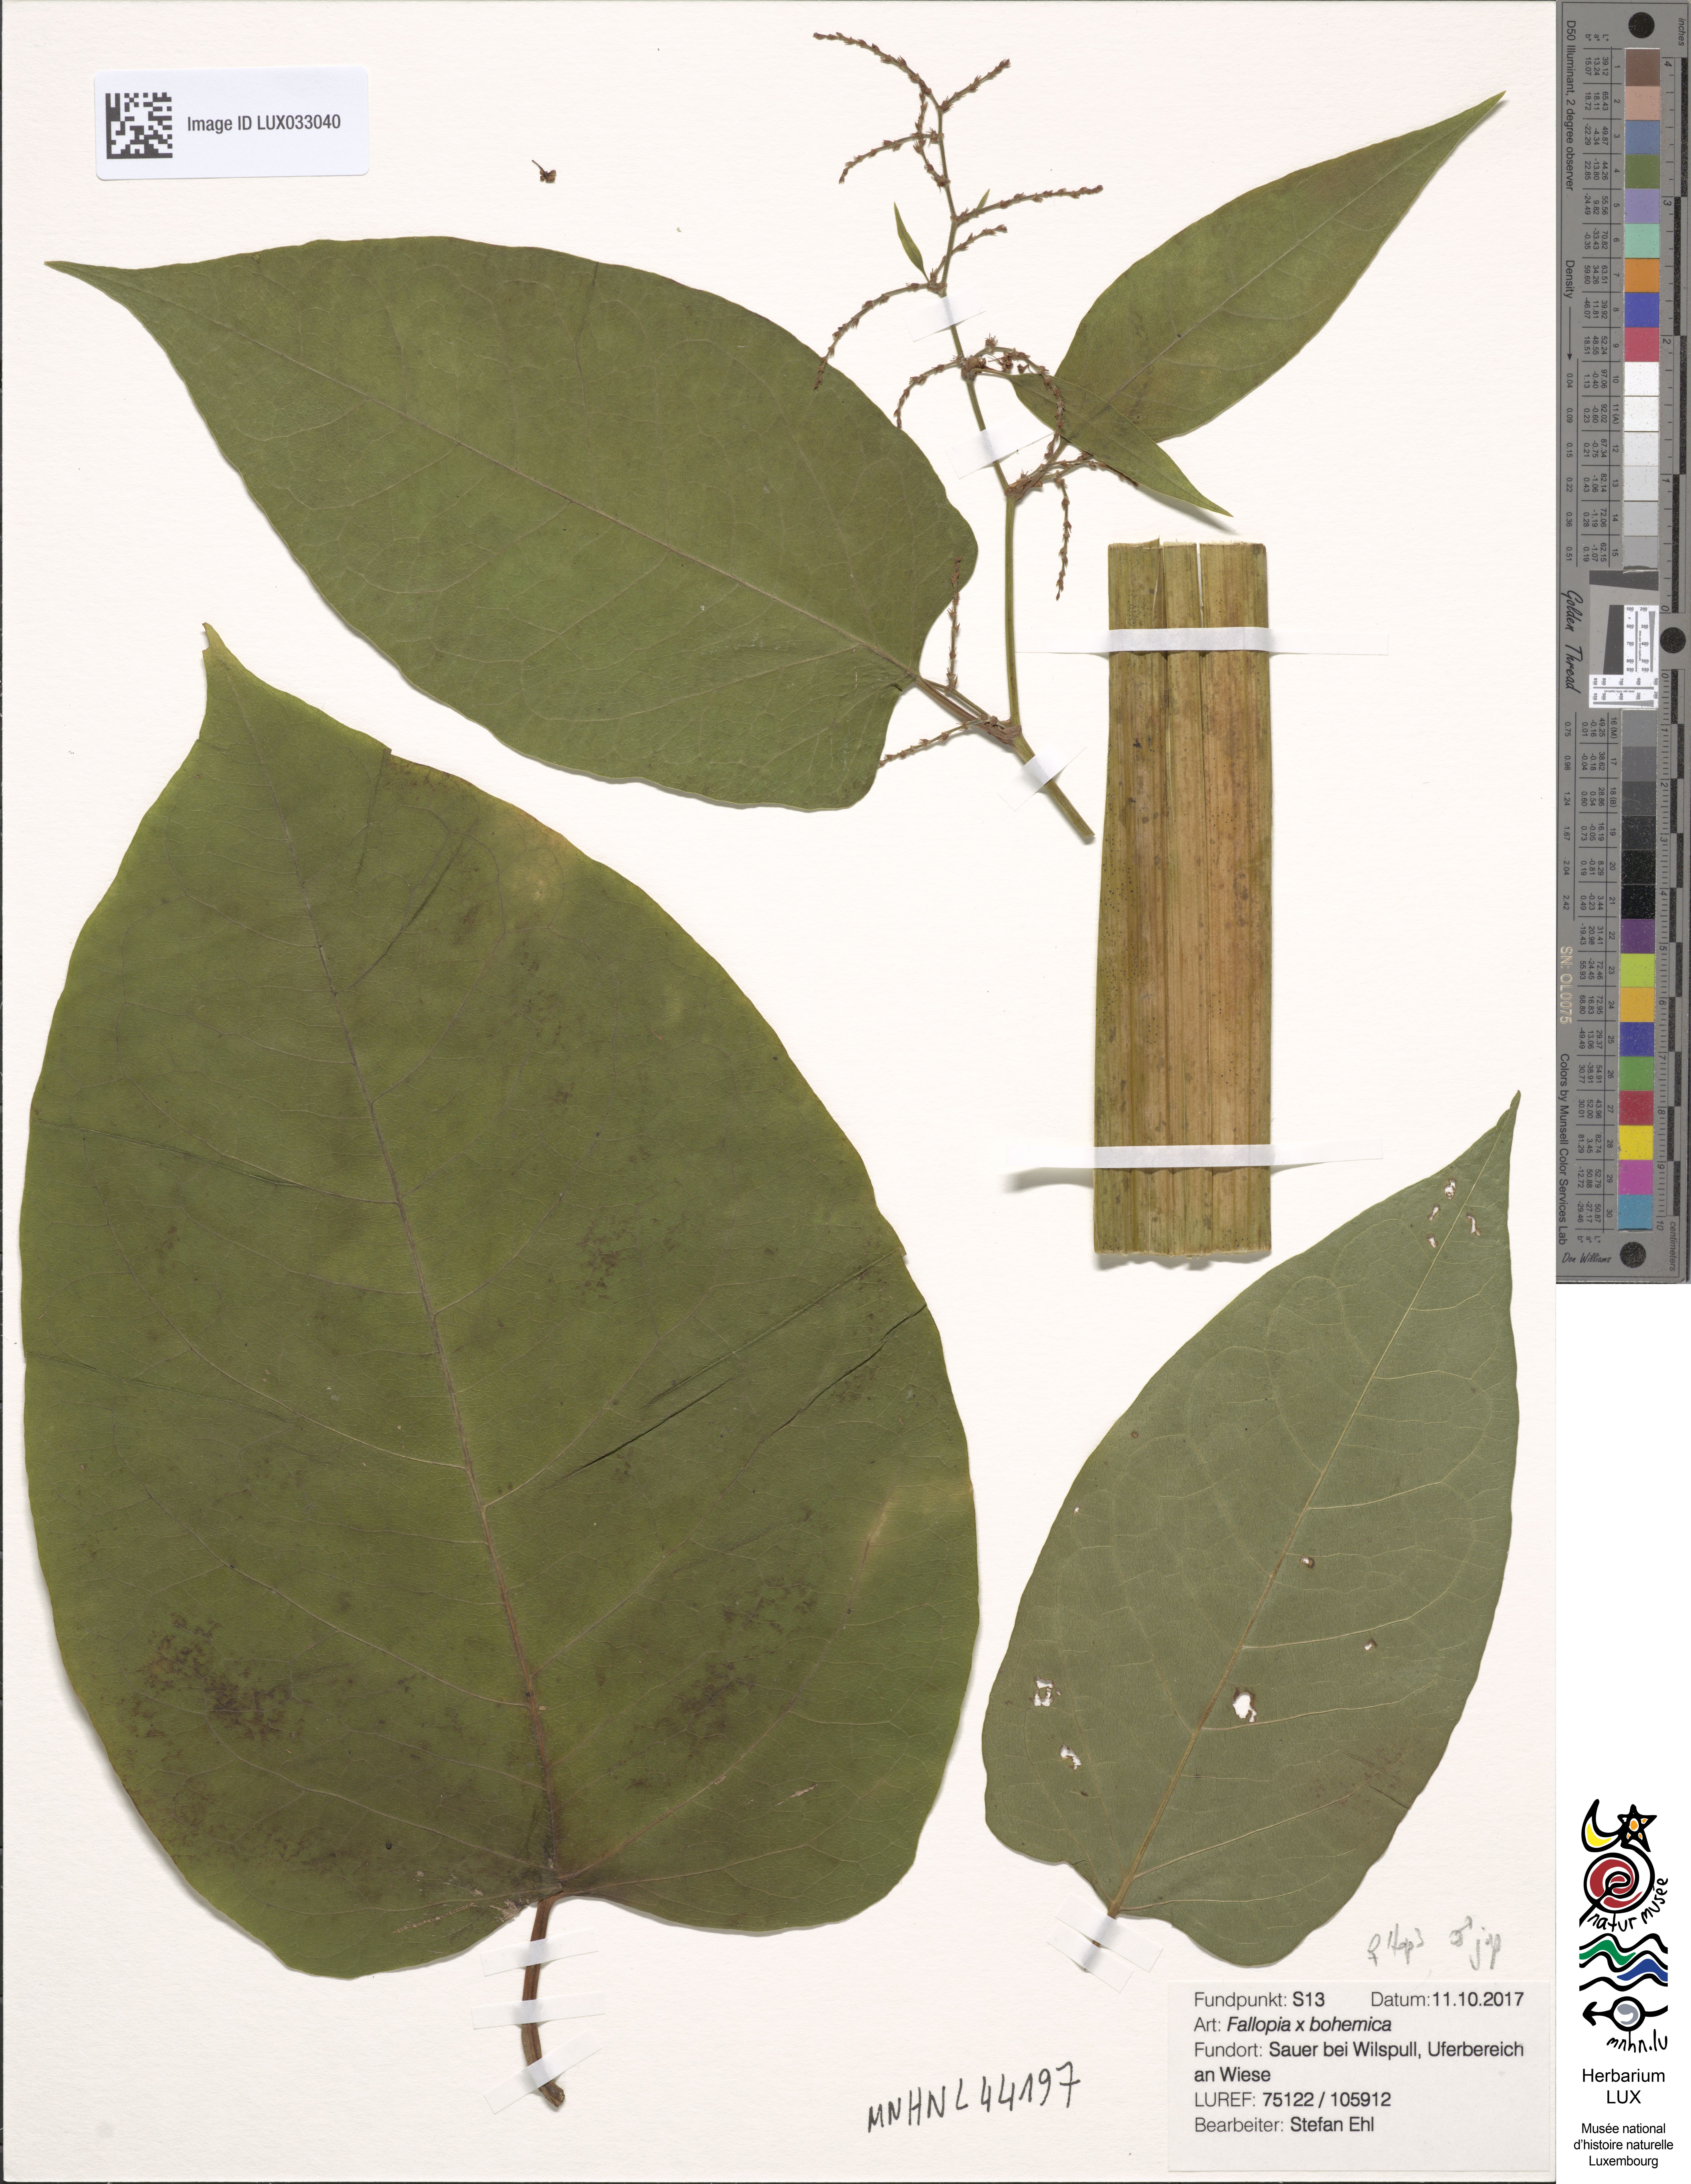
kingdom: Plantae
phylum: Tracheophyta
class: Magnoliopsida
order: Caryophyllales
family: Polygonaceae
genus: Reynoutria
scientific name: Reynoutria bohemica
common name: Bohemian knotweed
